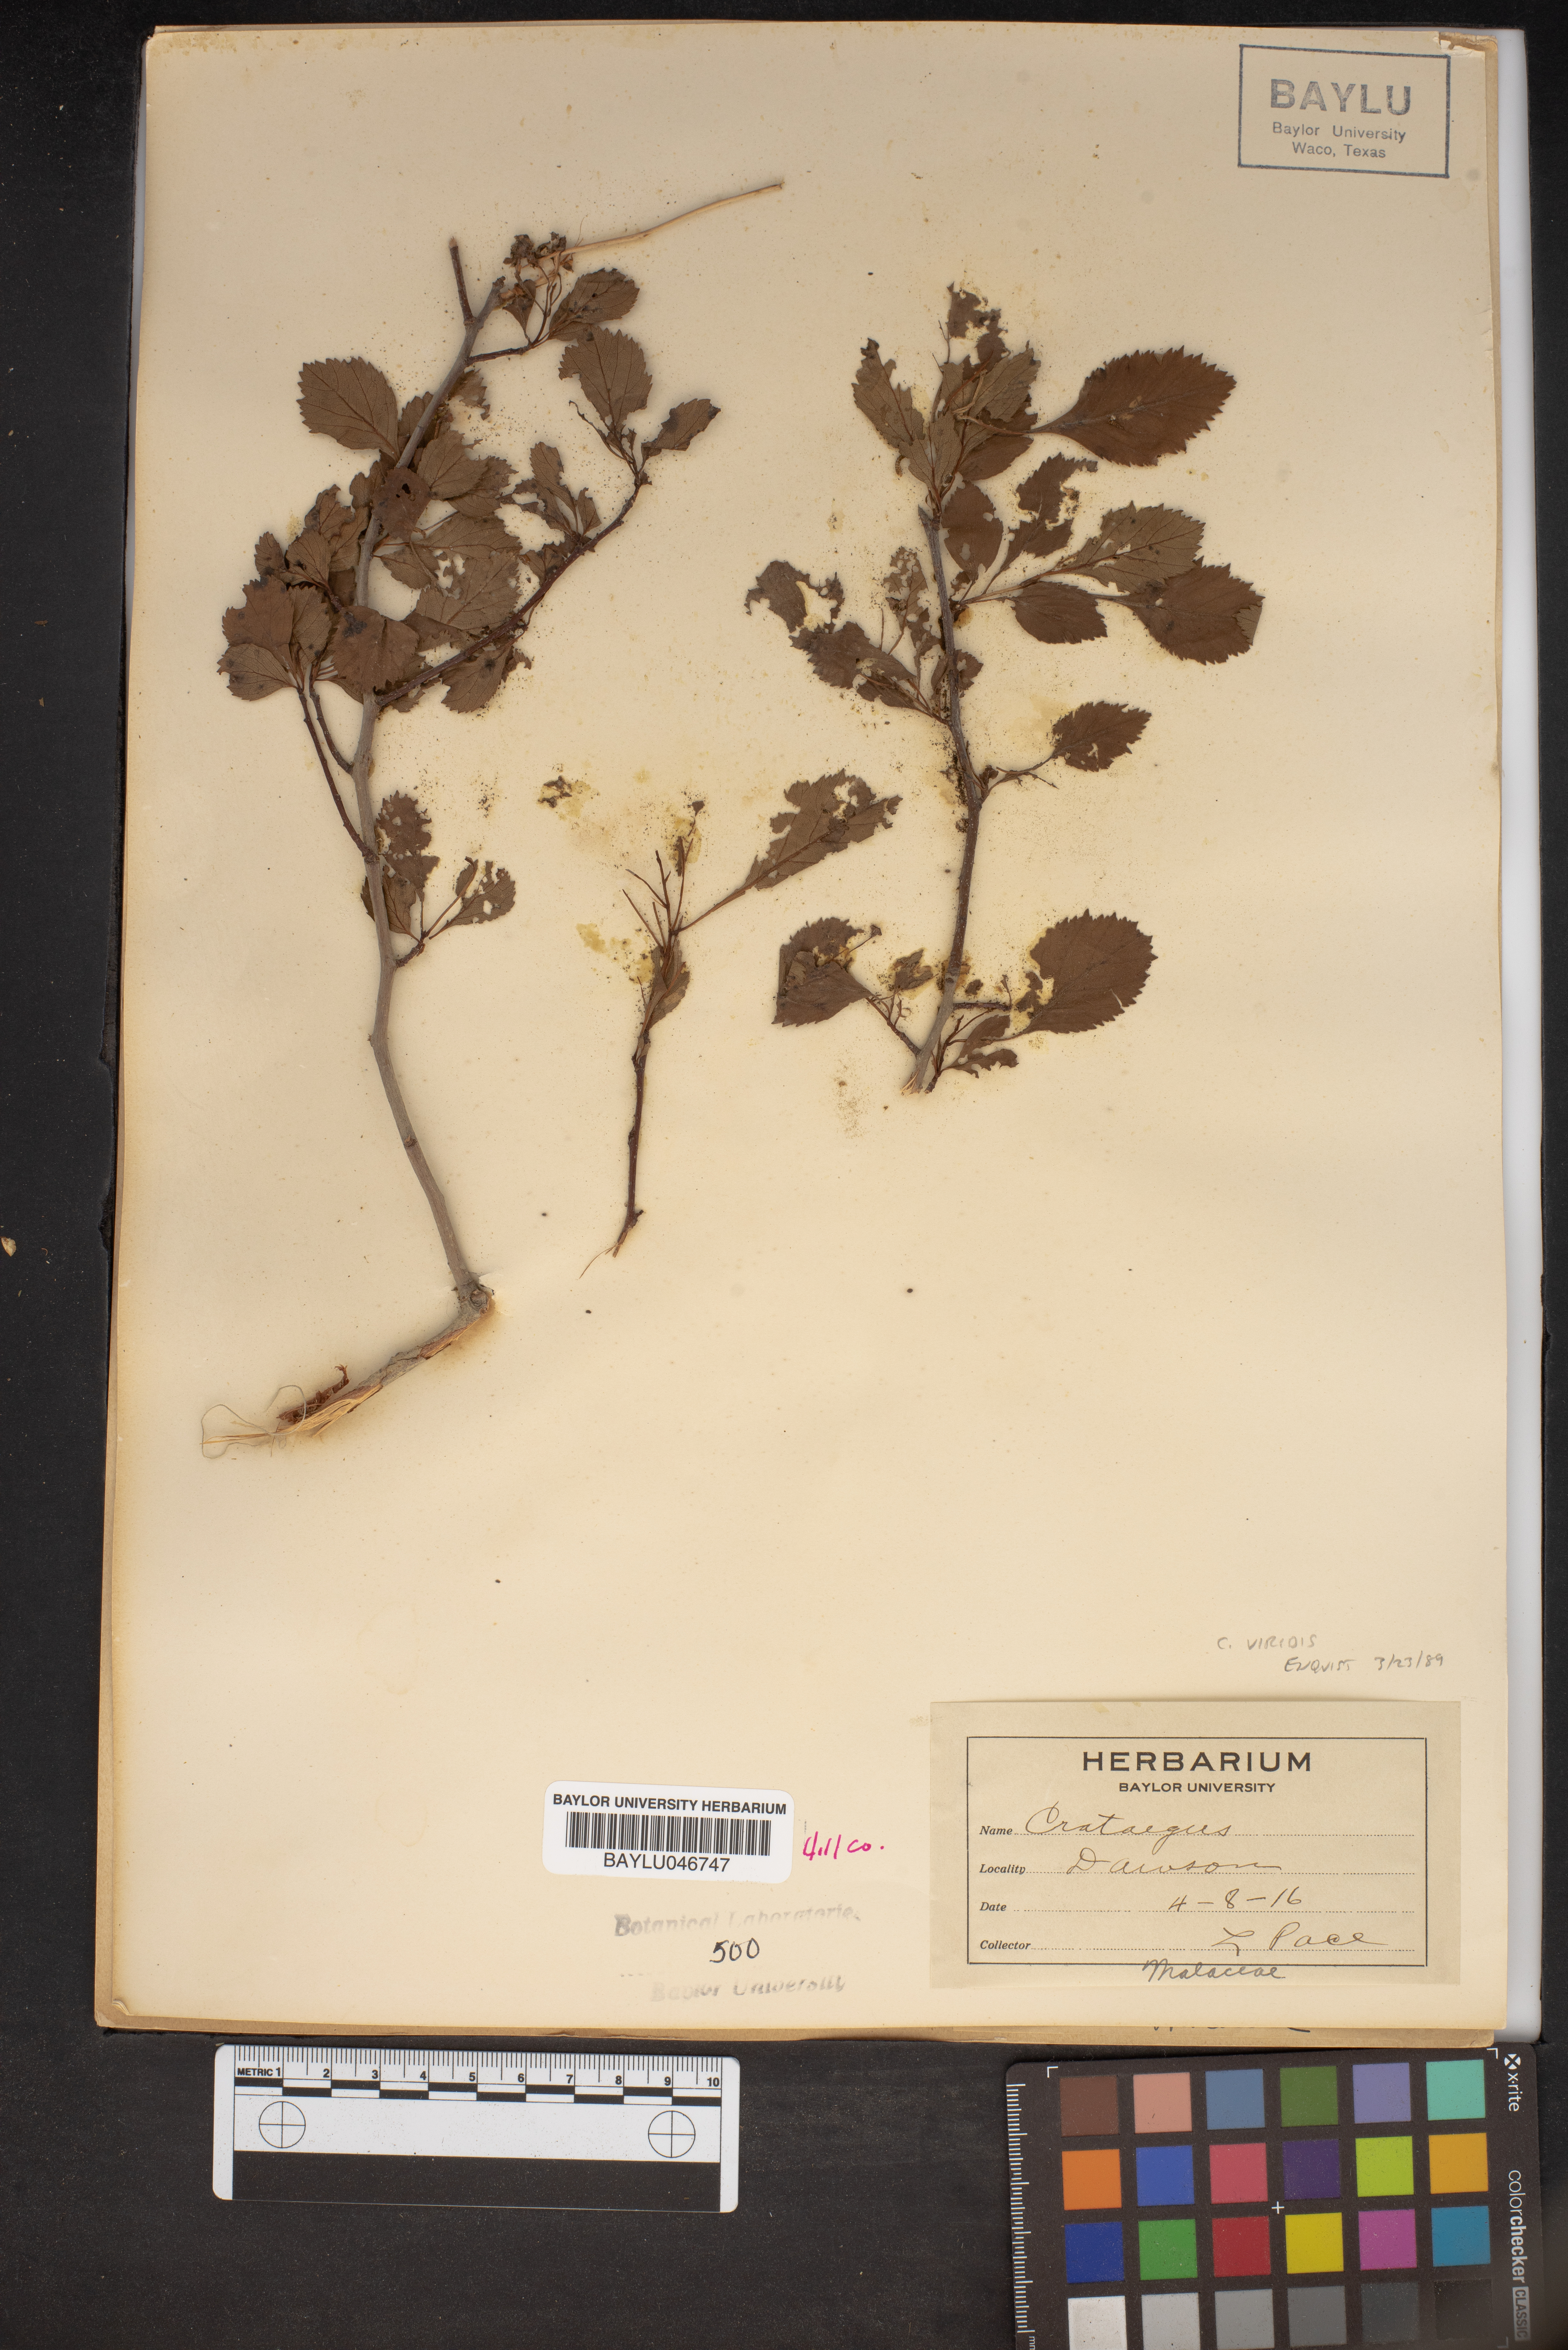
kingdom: Plantae
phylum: Tracheophyta
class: Magnoliopsida
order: Rosales
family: Rosaceae
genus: Crataegus
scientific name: Crataegus
